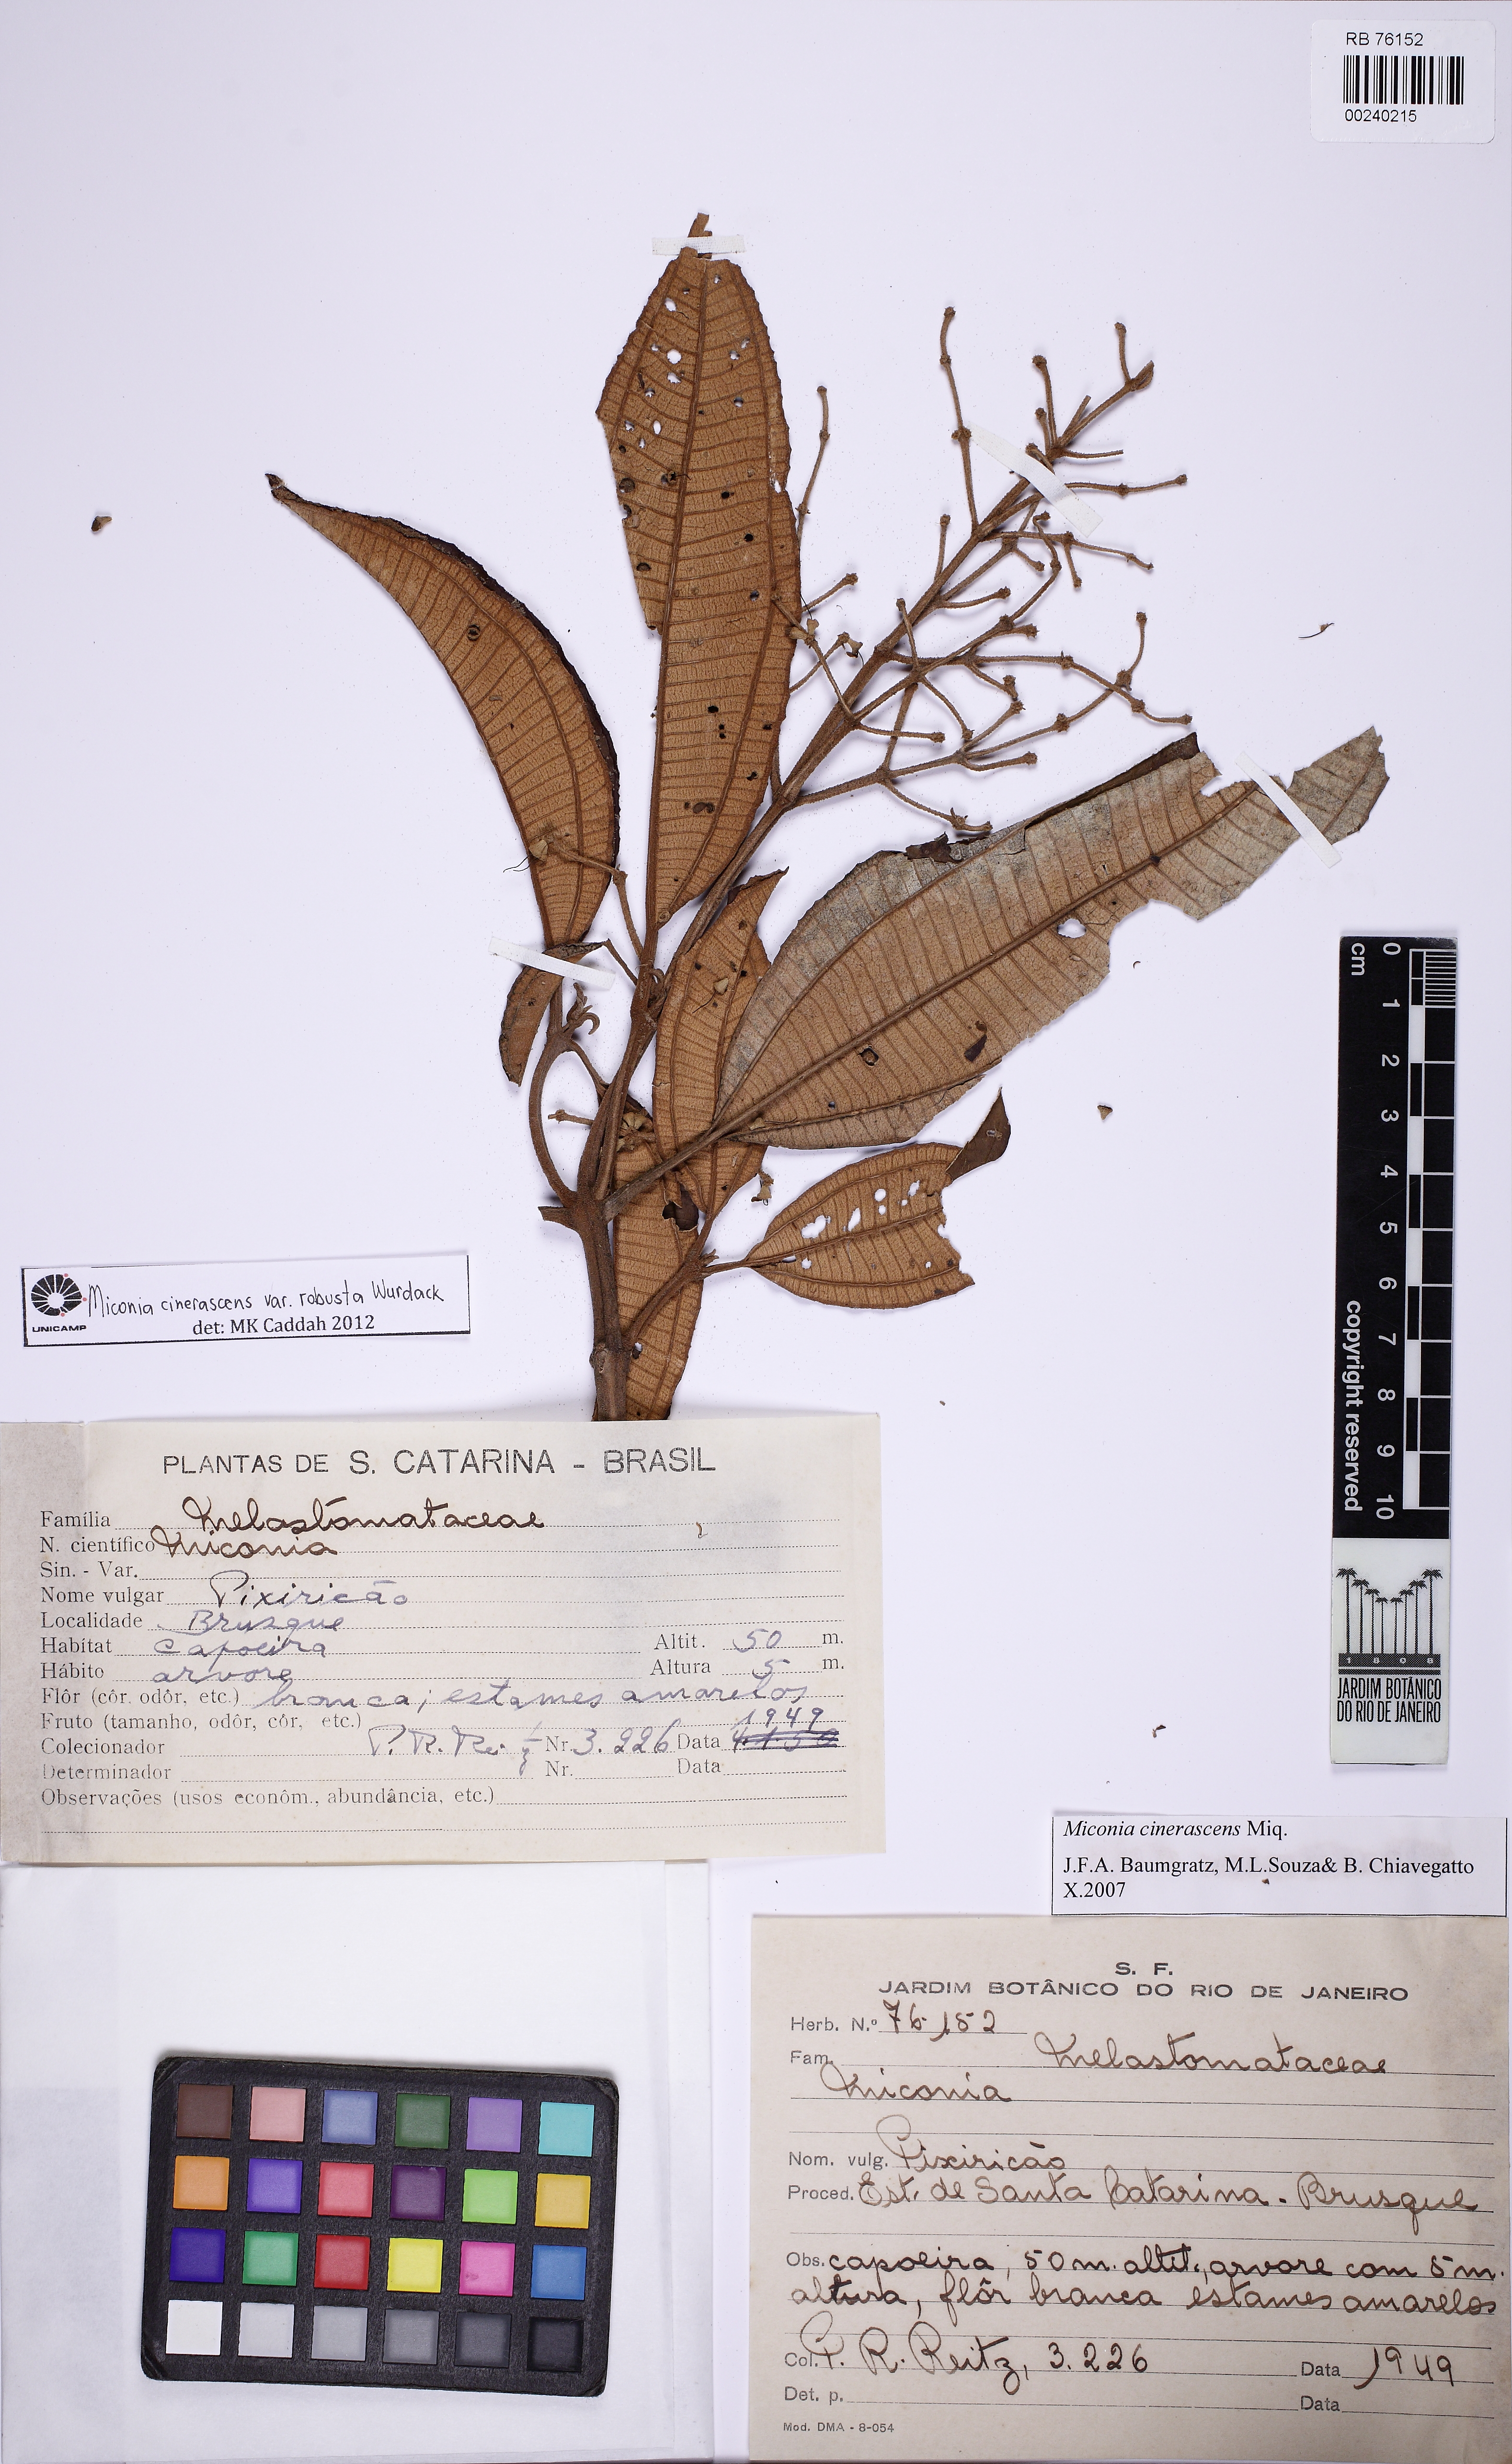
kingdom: Plantae
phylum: Tracheophyta
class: Magnoliopsida
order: Myrtales
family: Melastomataceae
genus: Miconia
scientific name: Miconia cinerascens
